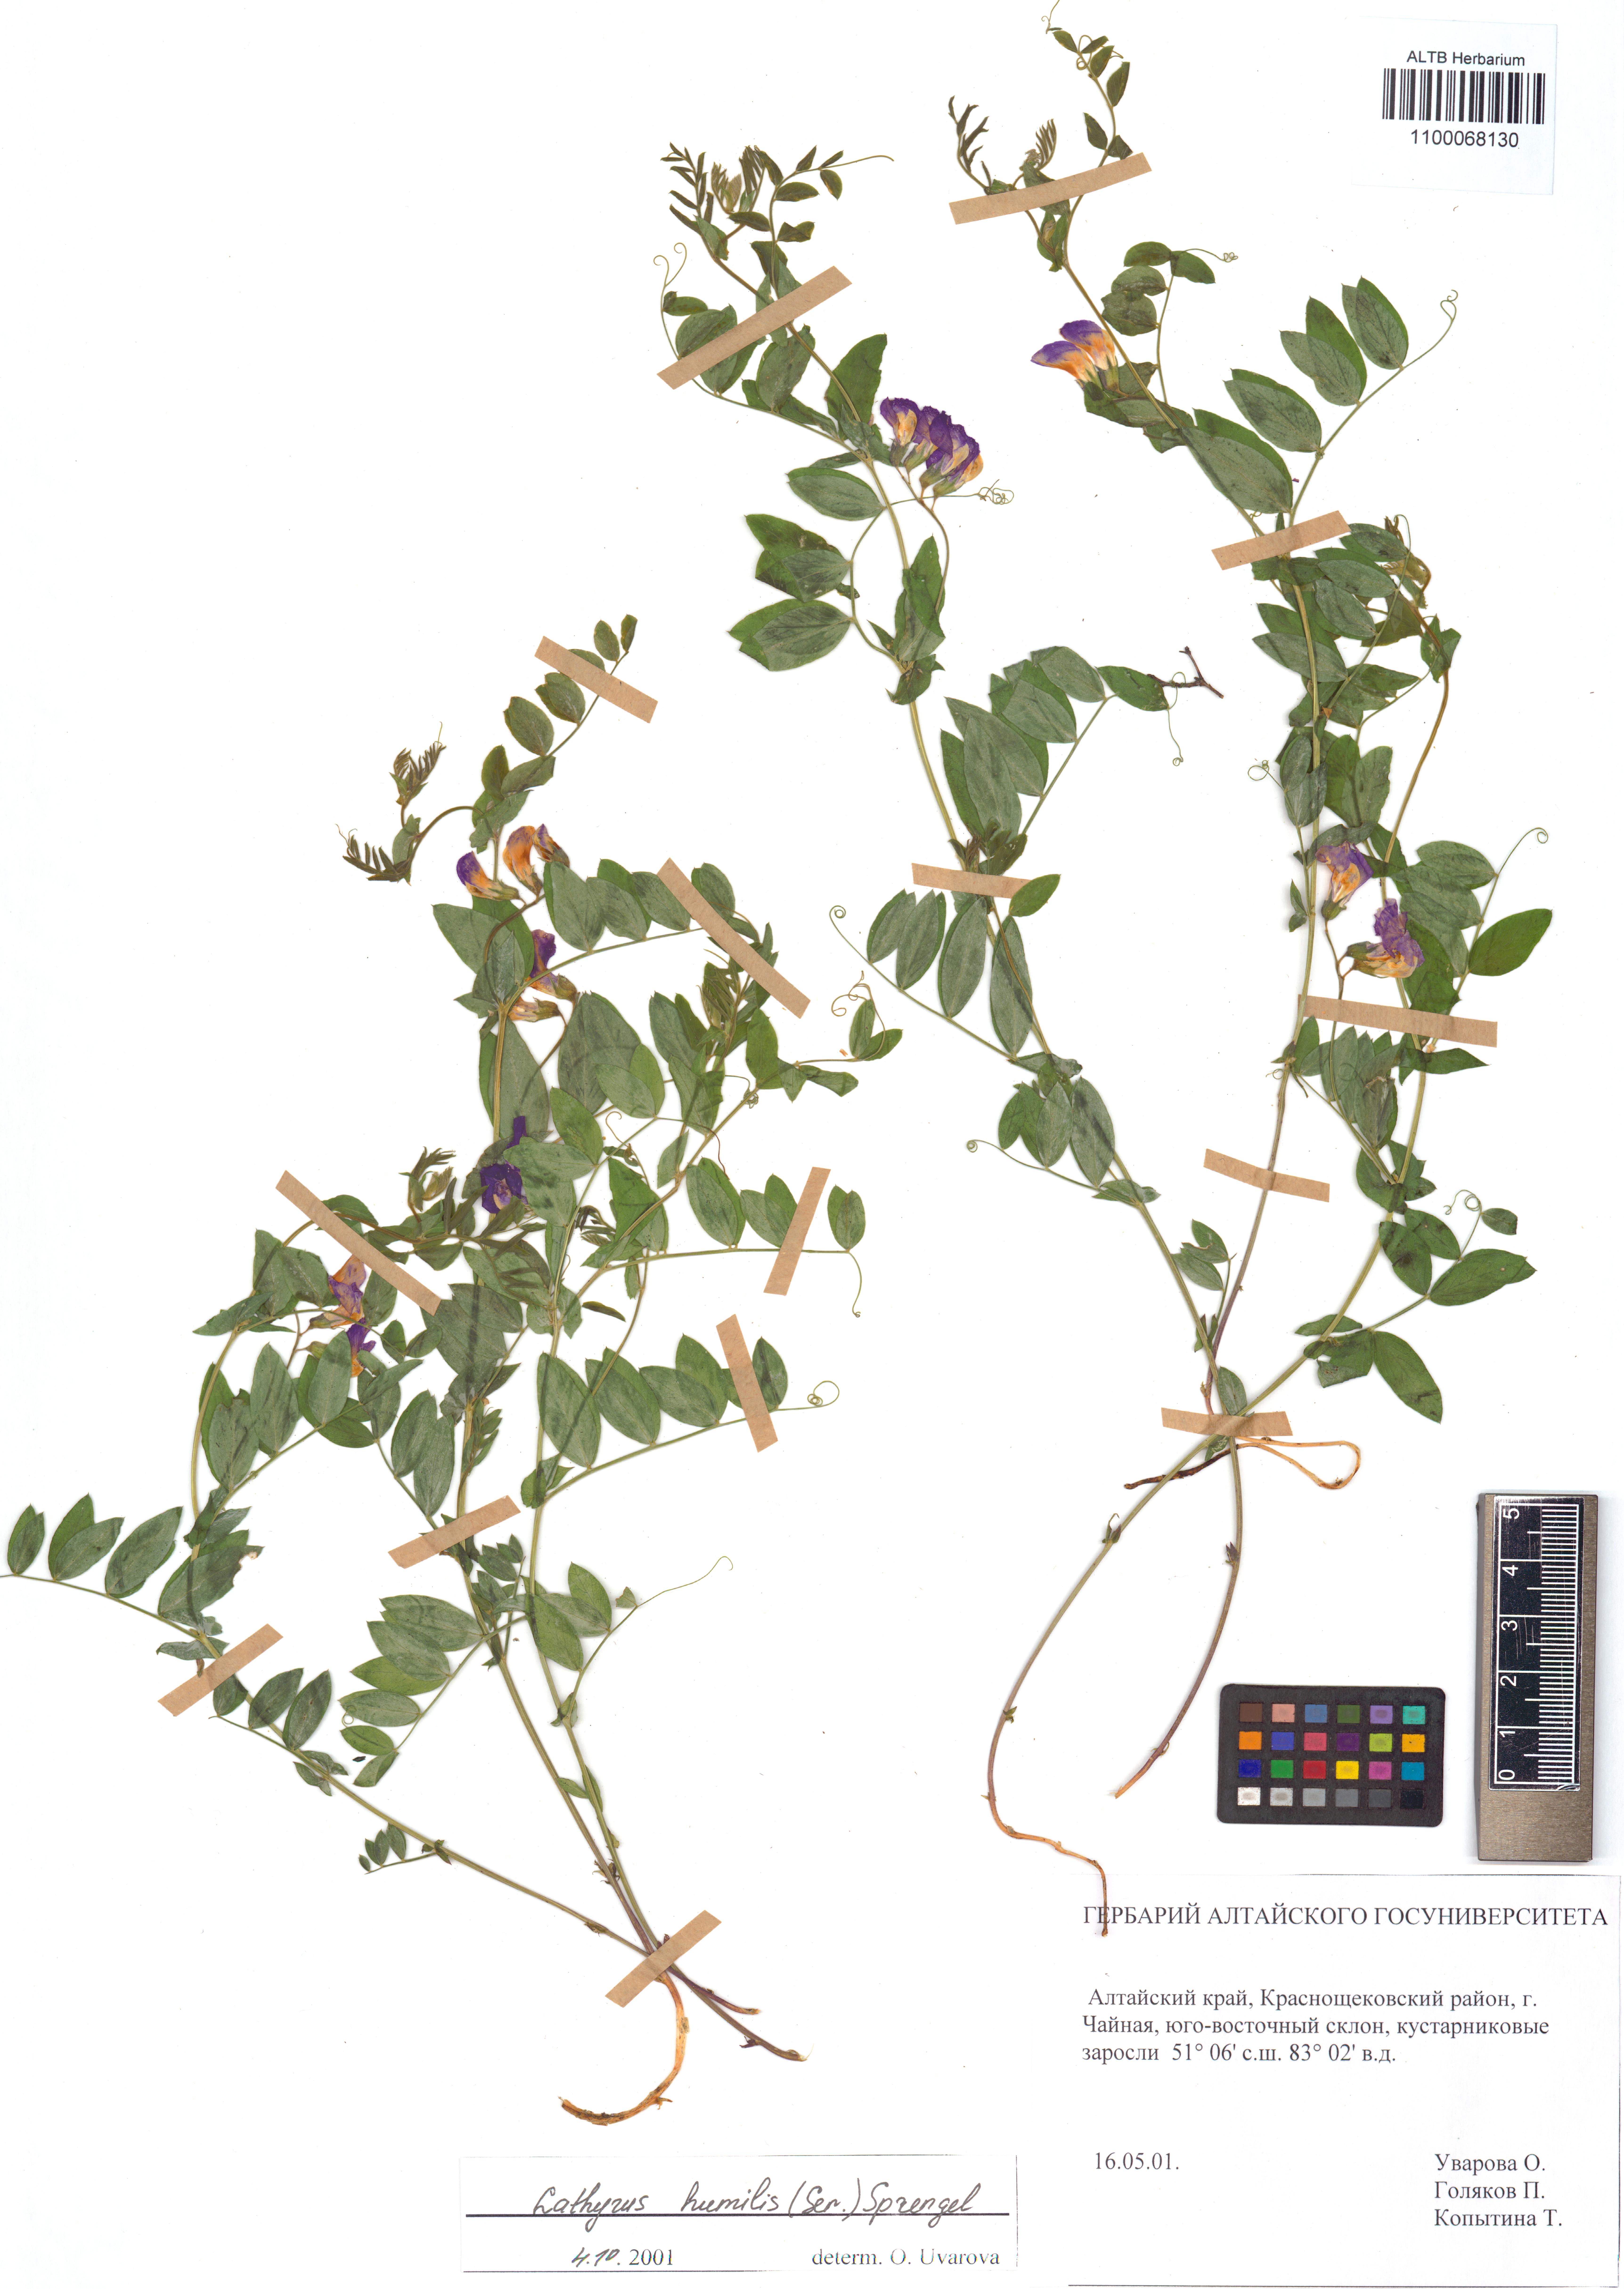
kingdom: Plantae
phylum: Tracheophyta
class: Magnoliopsida
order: Fabales
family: Fabaceae
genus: Lathyrus
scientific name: Lathyrus humilis
